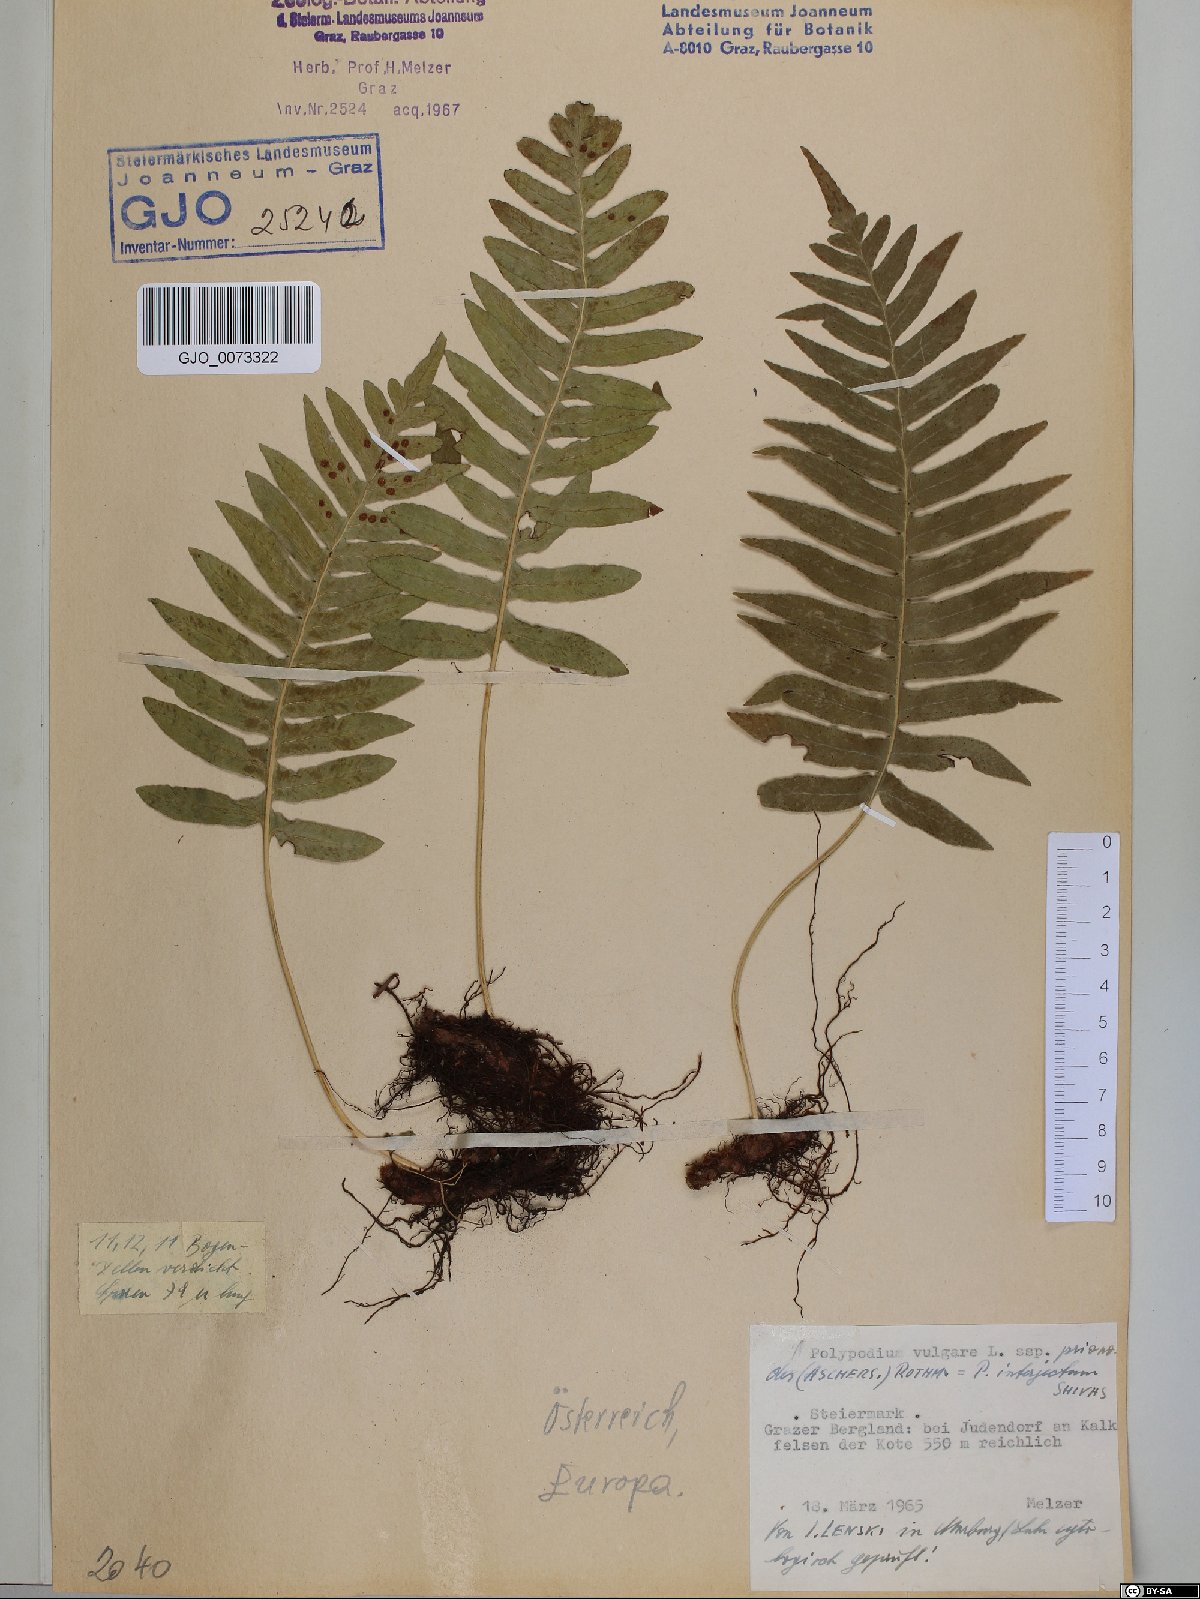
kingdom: Plantae
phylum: Tracheophyta
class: Polypodiopsida
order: Polypodiales
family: Polypodiaceae
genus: Polypodium
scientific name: Polypodium interjectum
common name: Intermediate polypody
